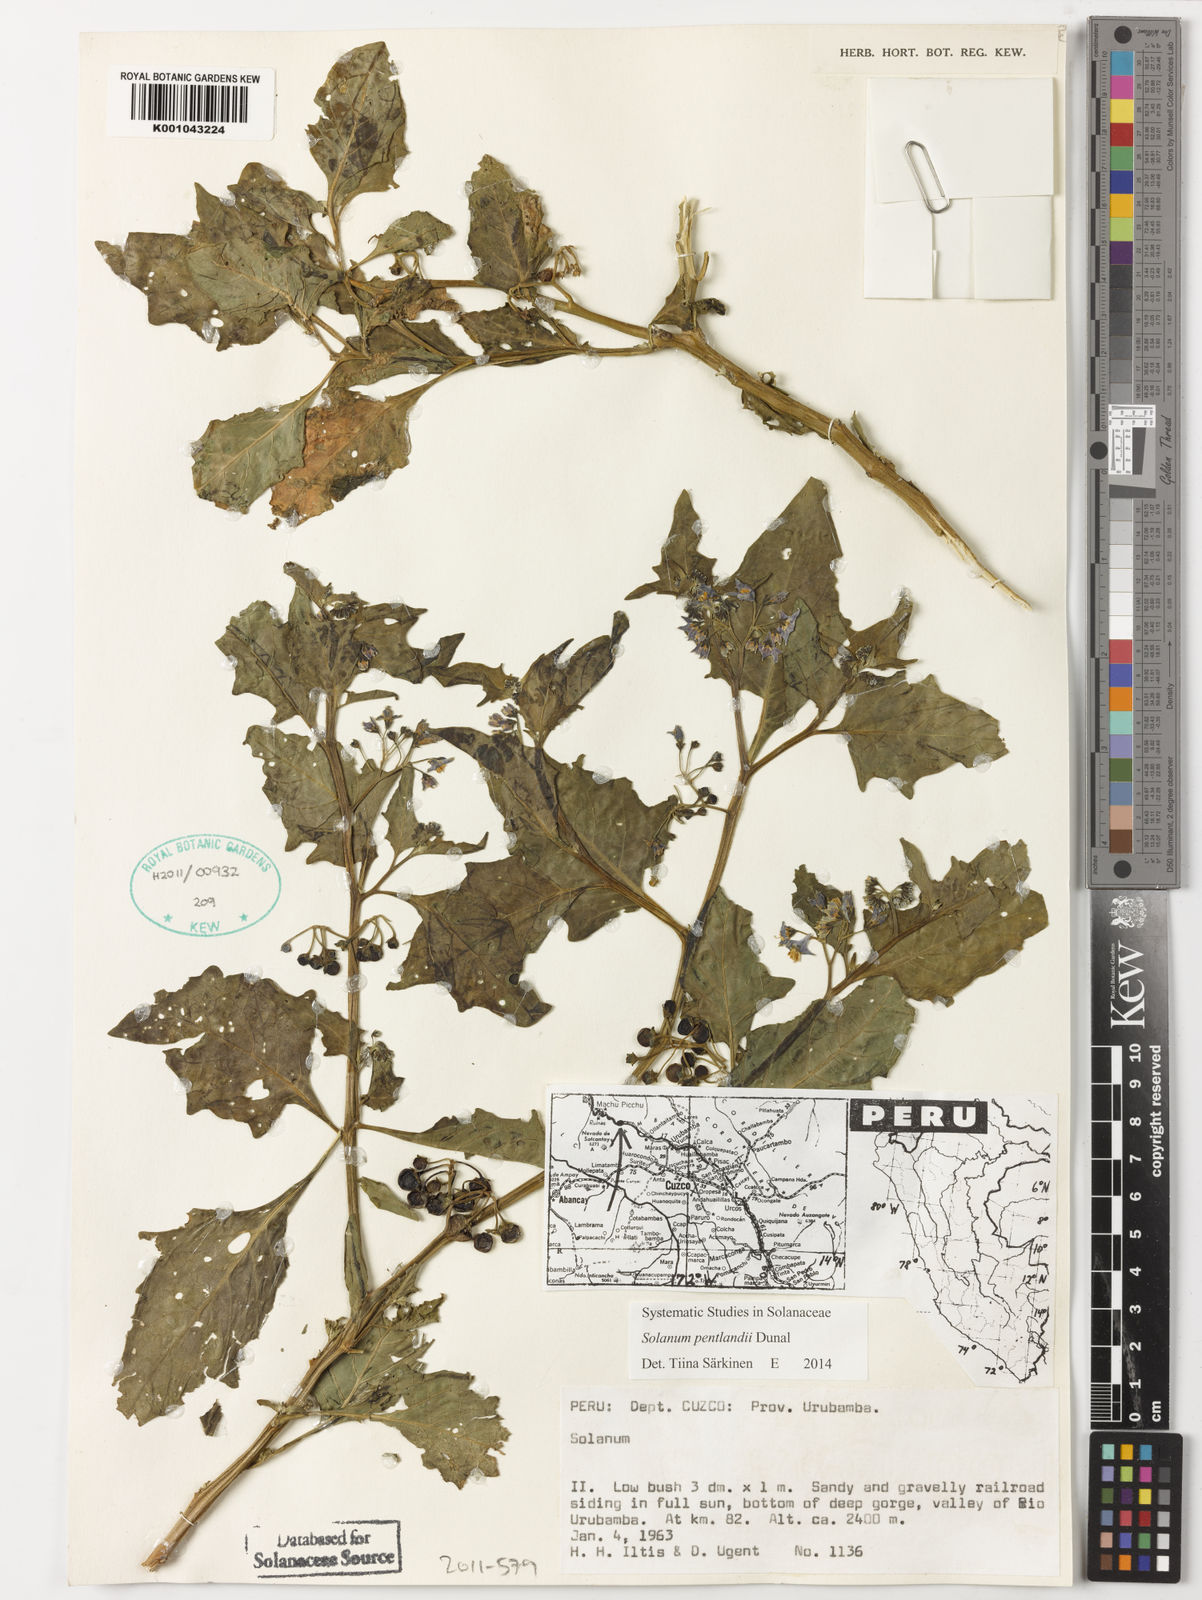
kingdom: Plantae
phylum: Tracheophyta
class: Magnoliopsida
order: Solanales
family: Solanaceae
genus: Solanum
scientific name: Solanum pentlandii
